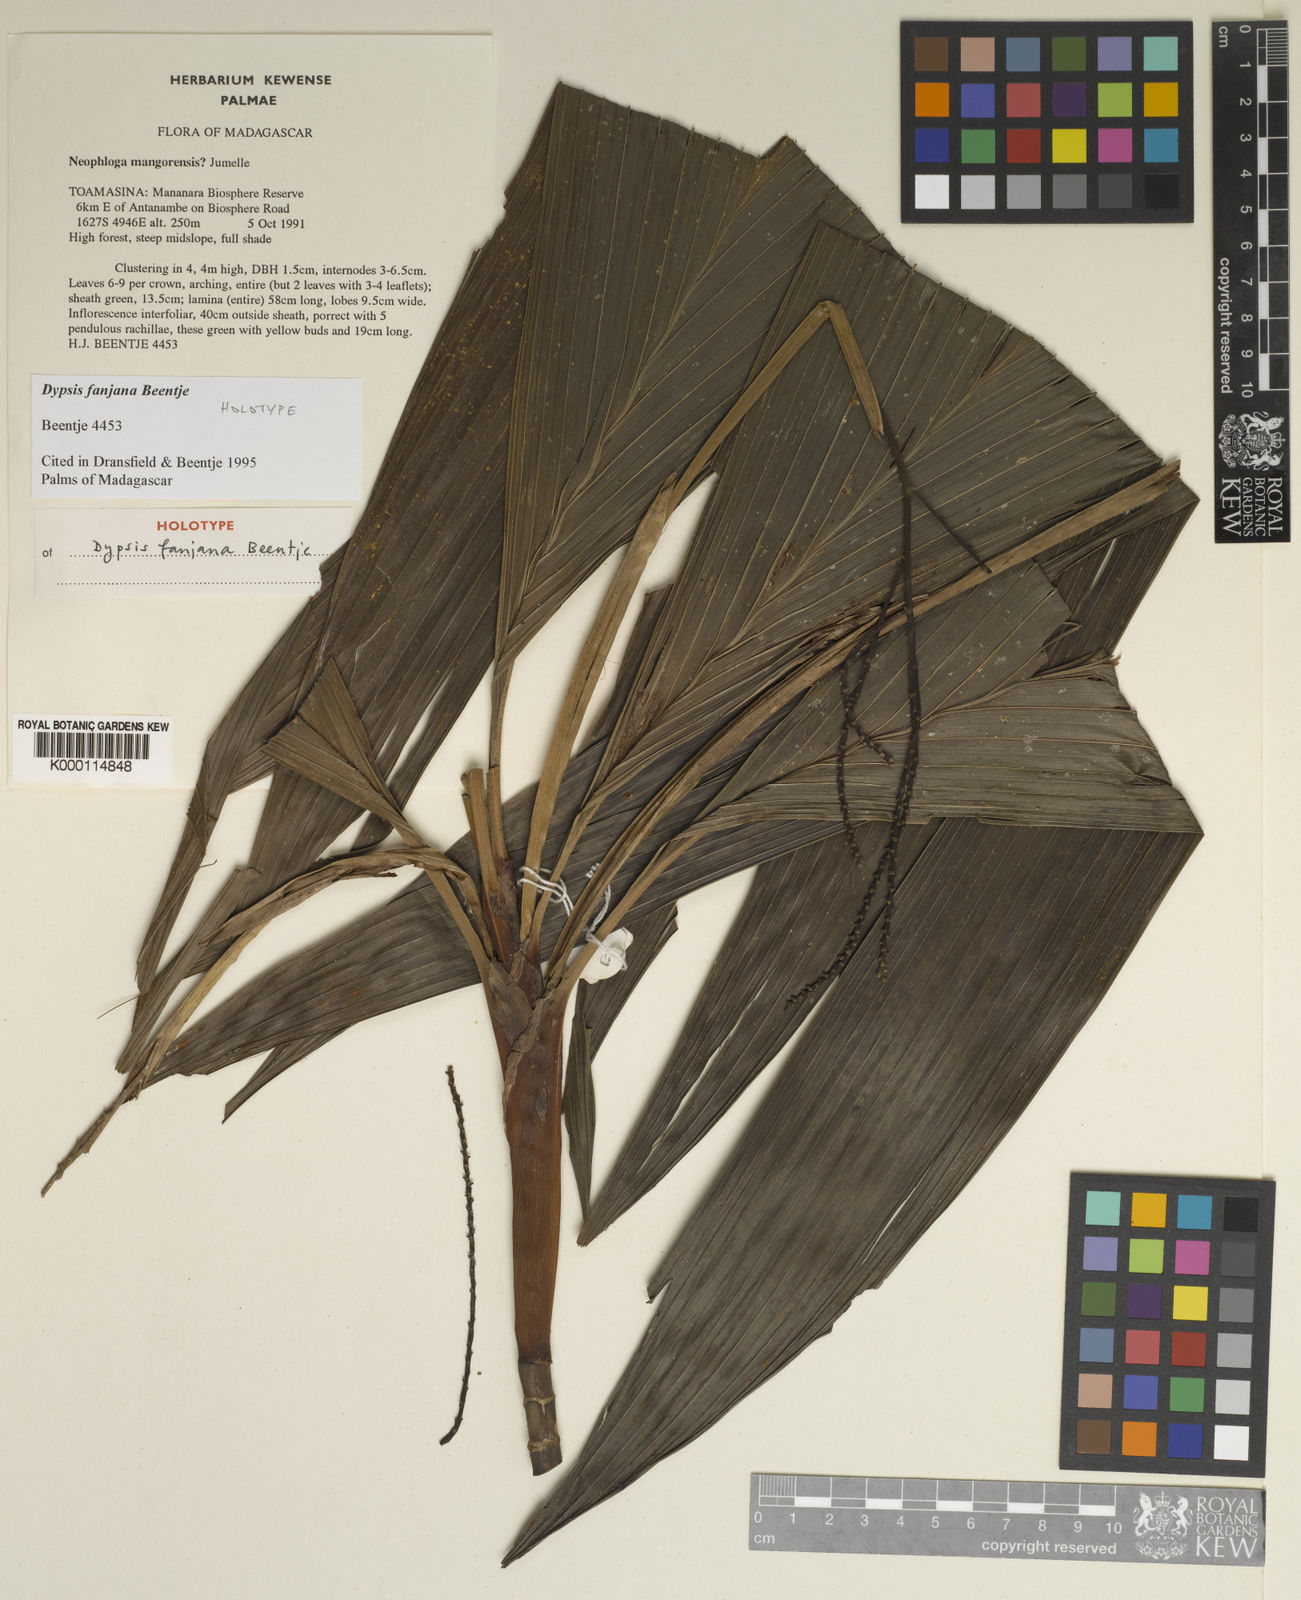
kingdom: Plantae
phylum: Tracheophyta
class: Liliopsida
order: Arecales
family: Arecaceae
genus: Dypsis
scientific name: Dypsis fanjana
